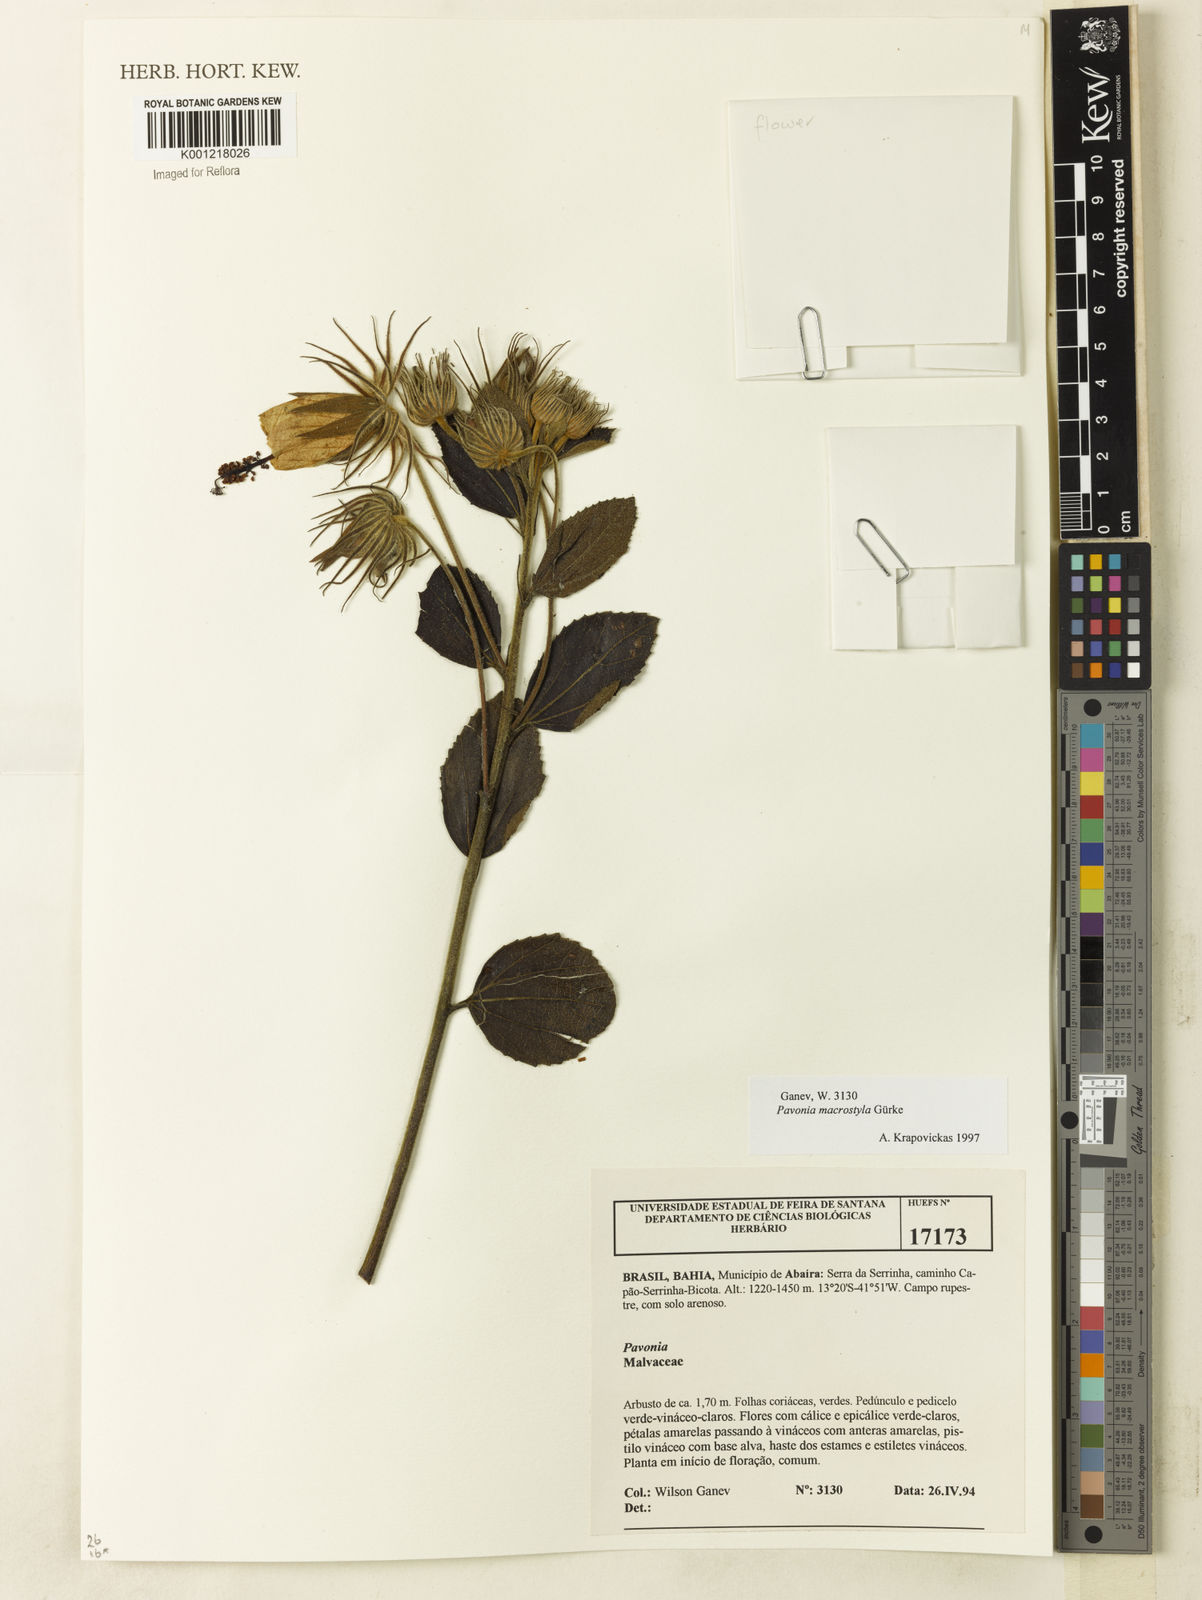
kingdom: Plantae
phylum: Tracheophyta
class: Magnoliopsida
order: Malvales
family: Malvaceae
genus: Pavonia
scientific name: Pavonia
